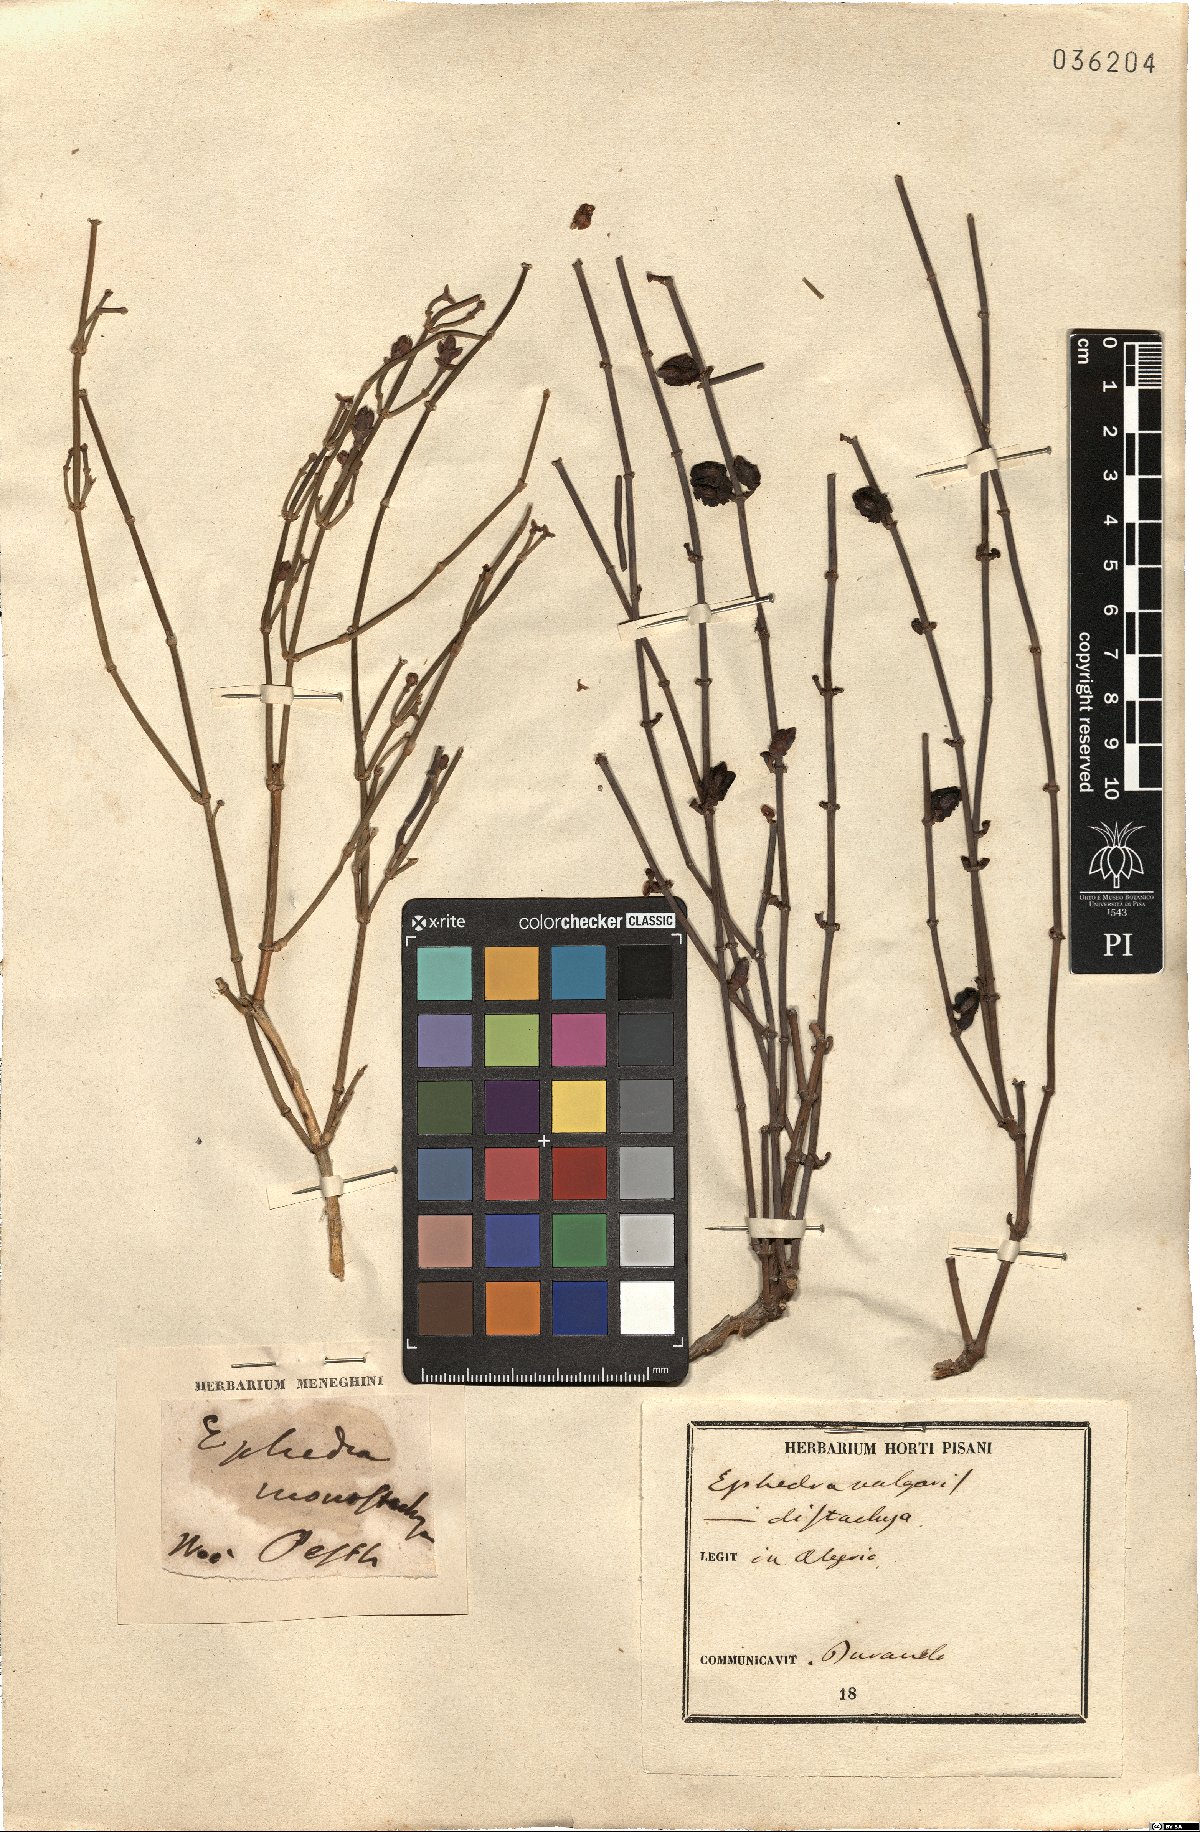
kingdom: Plantae
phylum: Tracheophyta
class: Gnetopsida
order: Ephedrales
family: Ephedraceae
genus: Ephedra
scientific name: Ephedra distachya
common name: Sea grape
